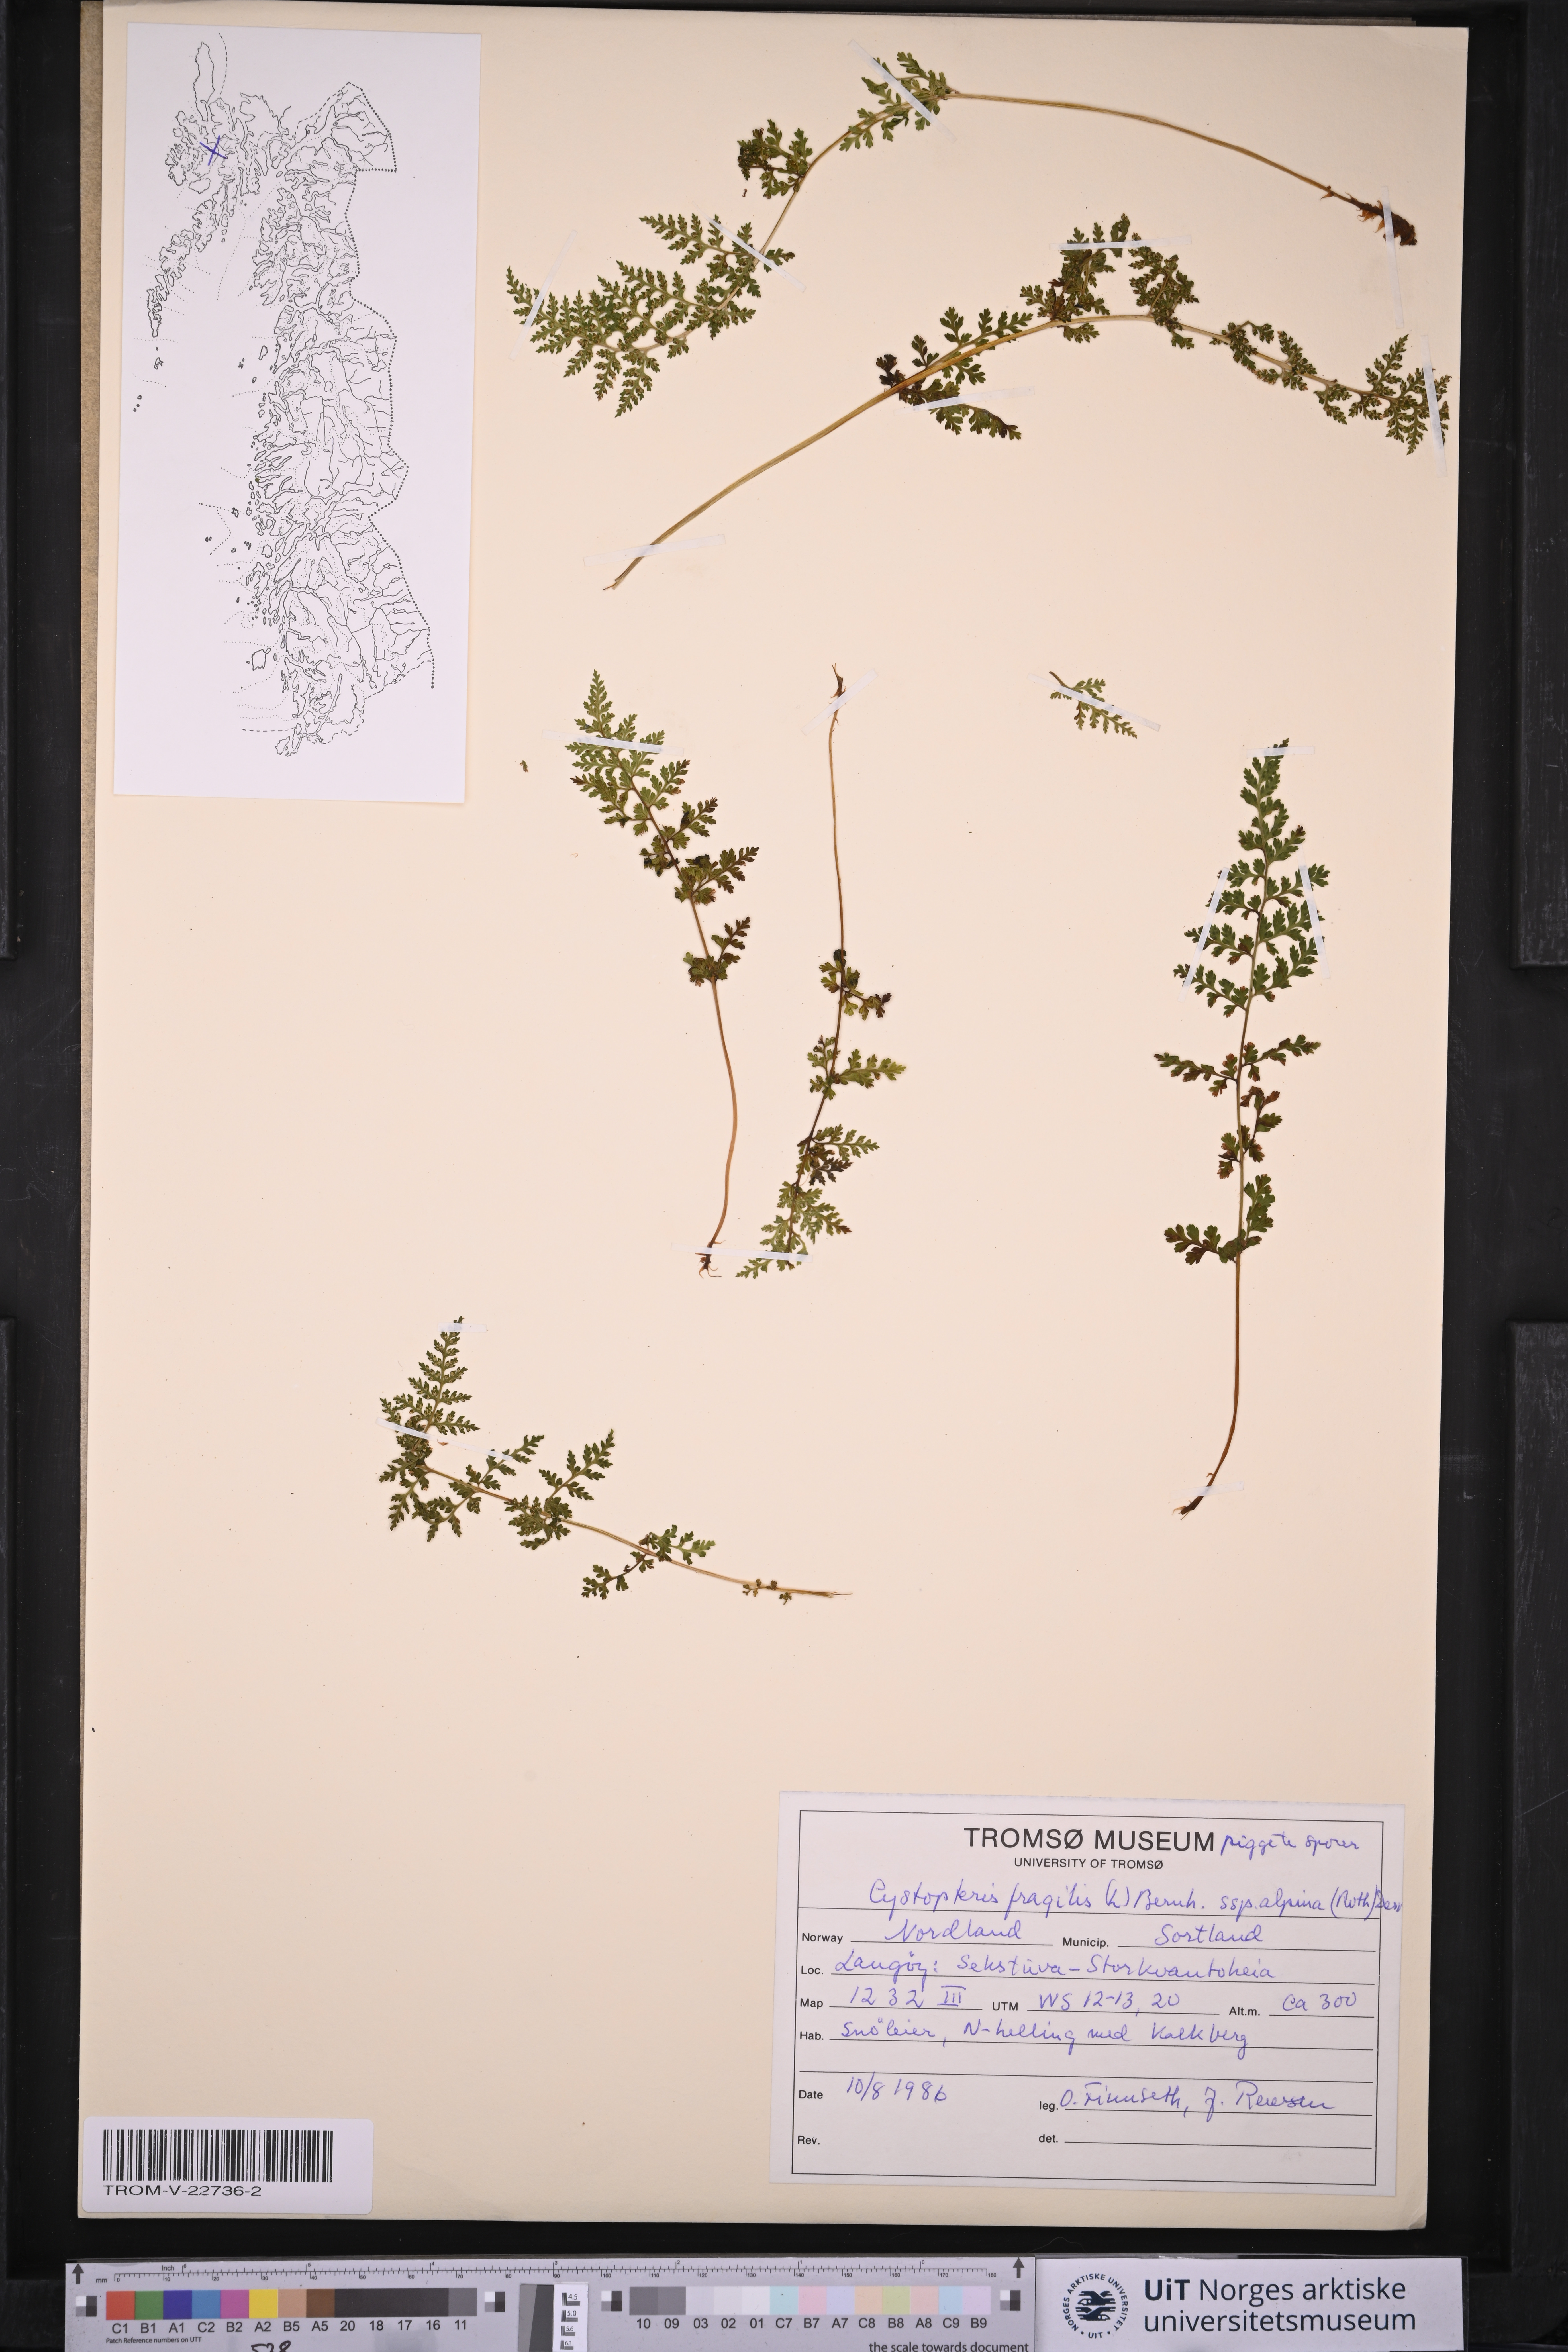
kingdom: Plantae
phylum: Tracheophyta
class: Polypodiopsida
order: Polypodiales
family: Cystopteridaceae
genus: Cystopteris
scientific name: Cystopteris alpina
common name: Alpine bladder-fern
